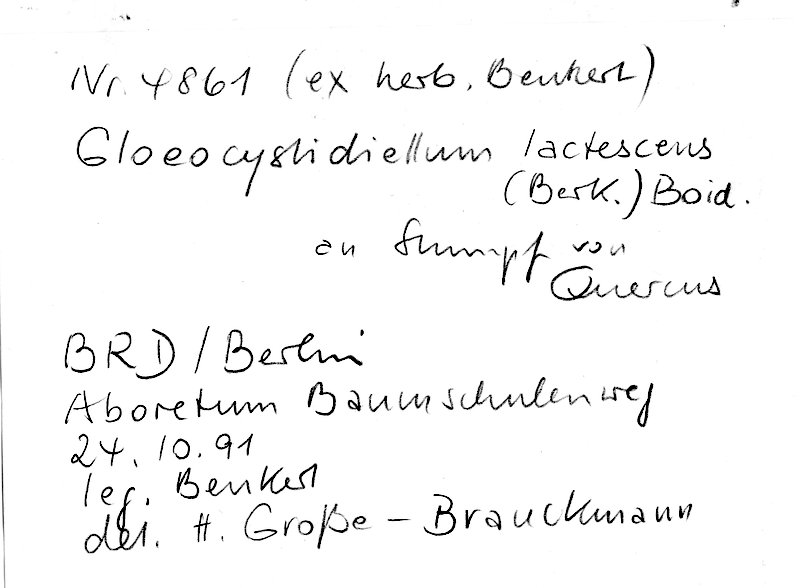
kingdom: Fungi
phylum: Basidiomycota
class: Agaricomycetes
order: Russulales
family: Peniophoraceae
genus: Gloiothele
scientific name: Gloiothele lactescens
